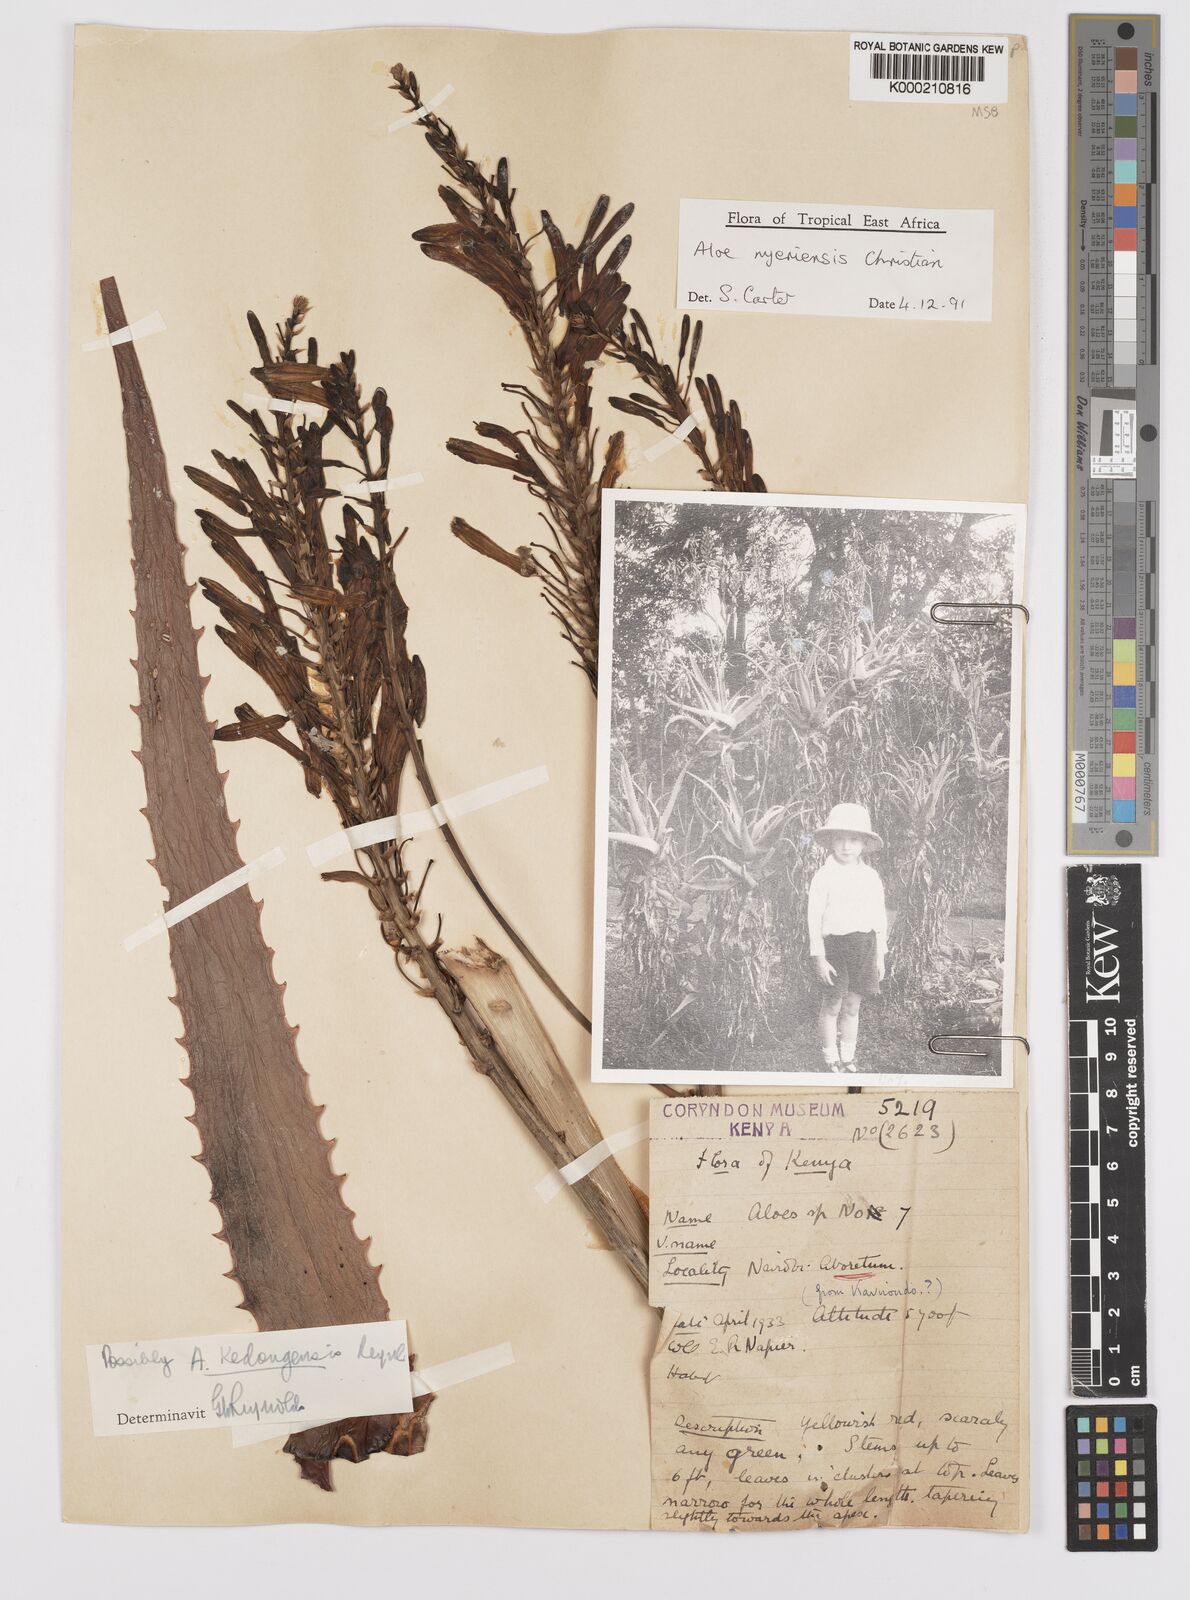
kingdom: Plantae
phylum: Tracheophyta
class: Liliopsida
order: Asparagales
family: Asphodelaceae
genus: Aloe
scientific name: Aloe nyeriensis
